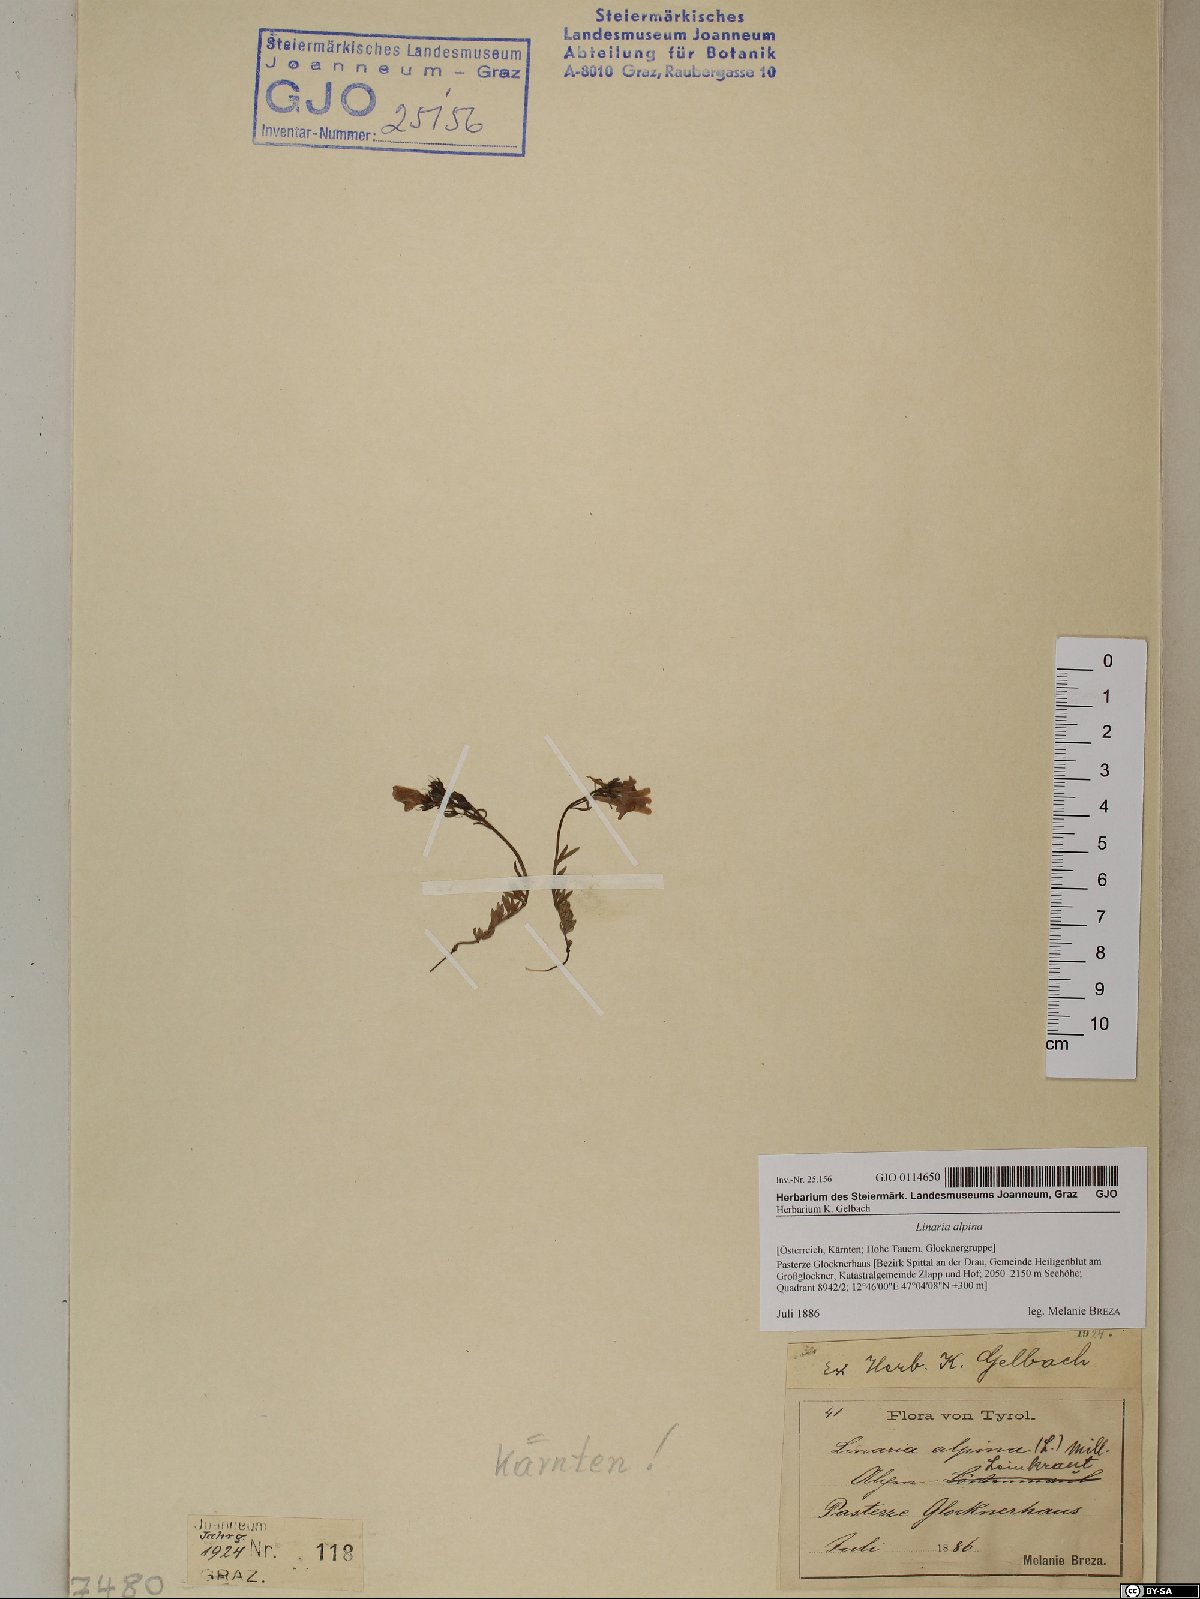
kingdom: Plantae
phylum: Tracheophyta
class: Magnoliopsida
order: Lamiales
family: Plantaginaceae
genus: Linaria
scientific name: Linaria alpina
